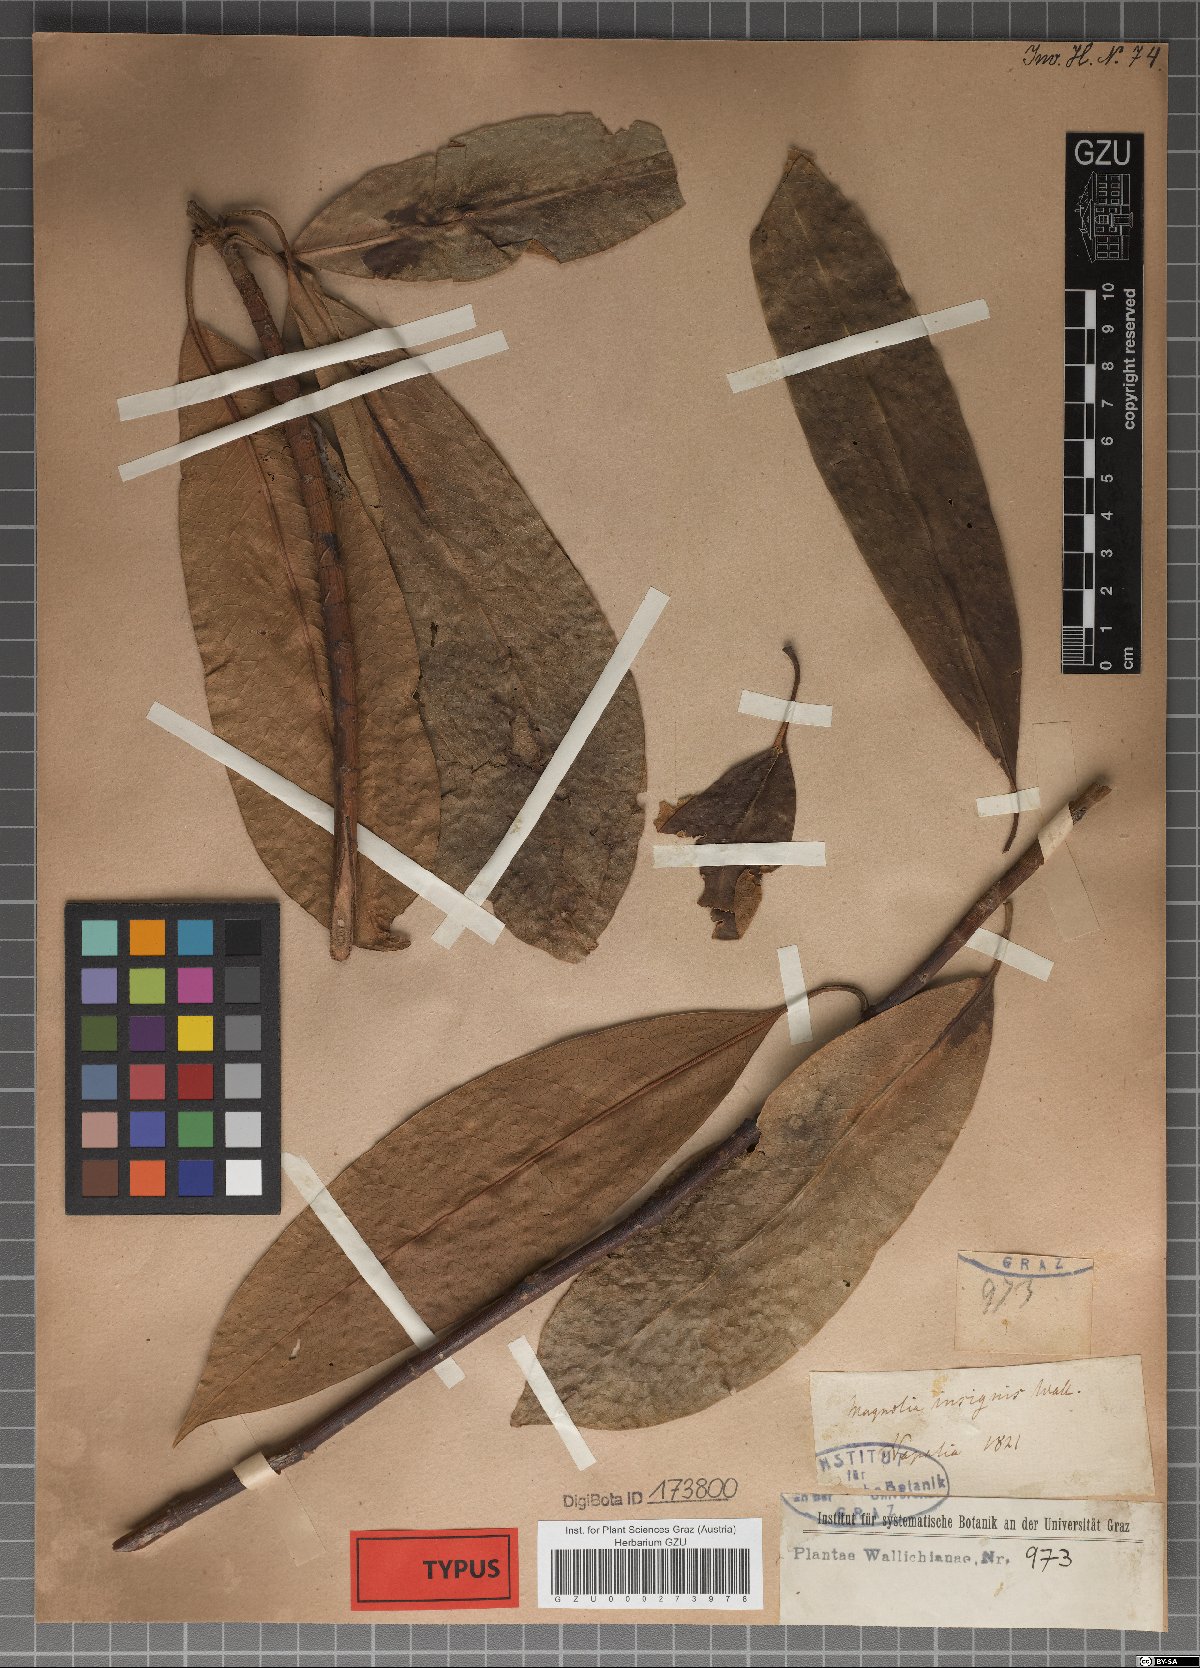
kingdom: Plantae
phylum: Tracheophyta
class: Magnoliopsida
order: Magnoliales
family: Magnoliaceae
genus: Magnolia
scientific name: Magnolia insignis
